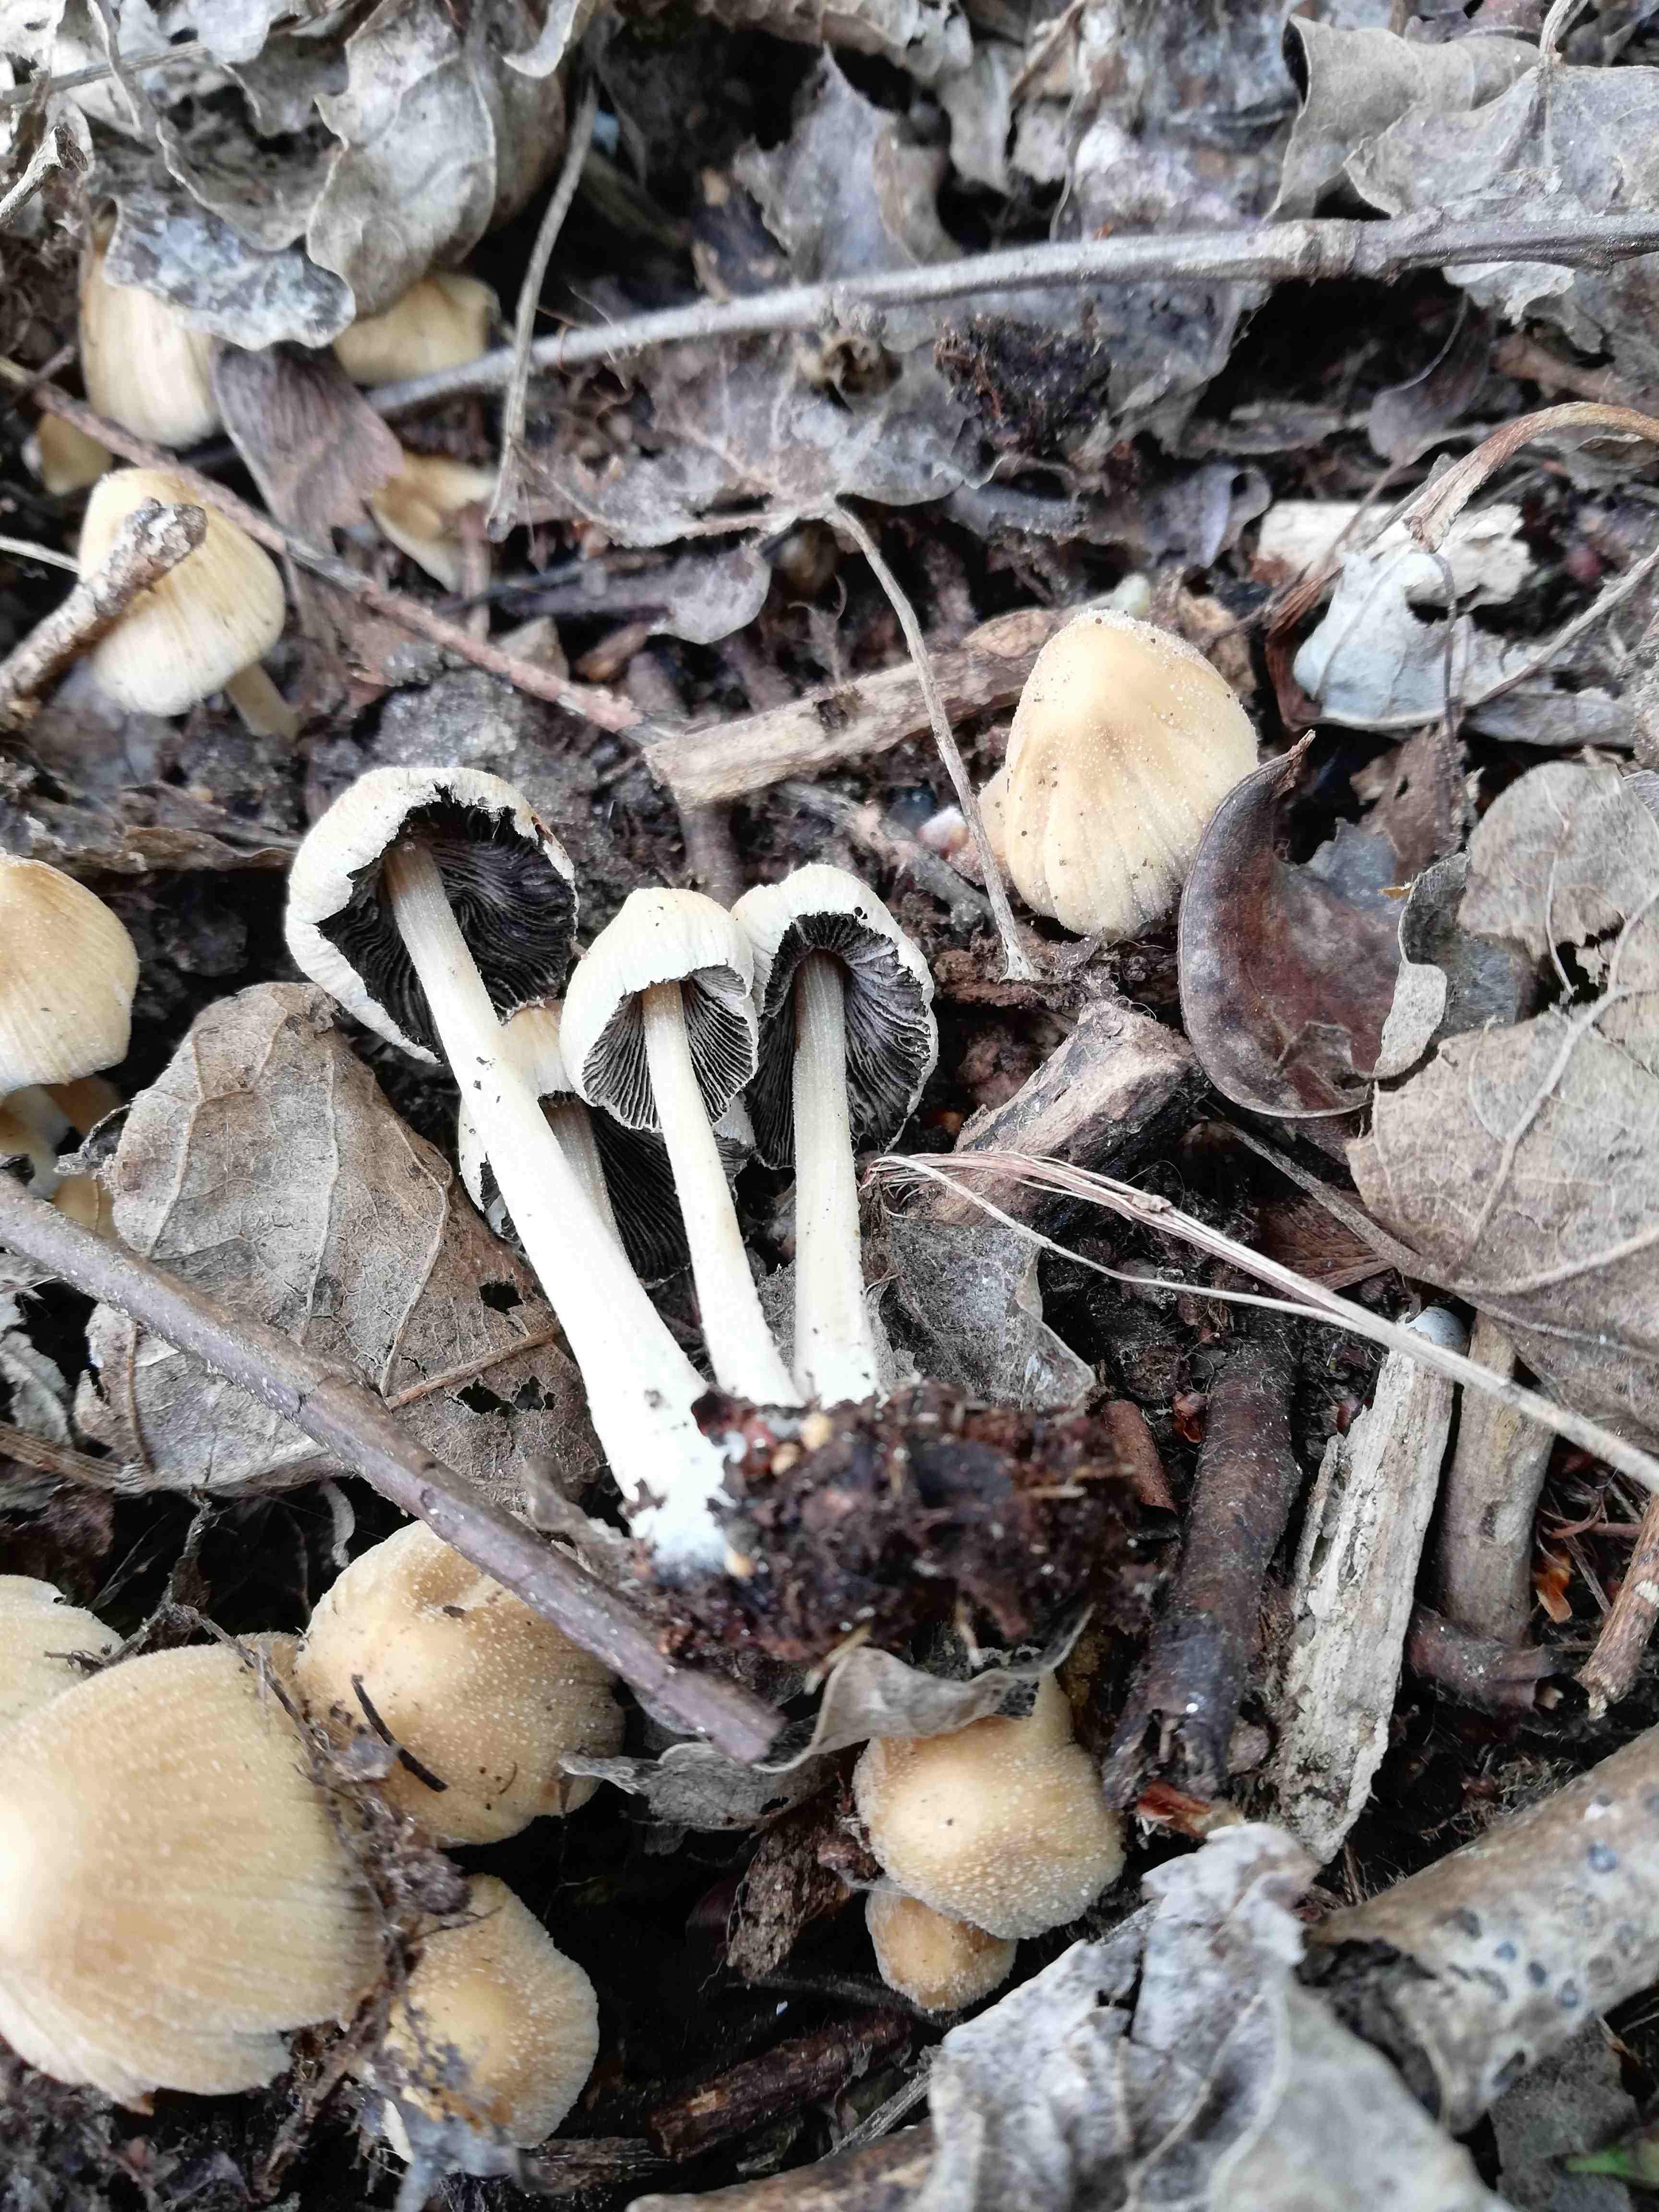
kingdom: Fungi
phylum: Basidiomycota
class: Agaricomycetes
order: Agaricales
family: Psathyrellaceae
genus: Coprinellus
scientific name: Coprinellus micaceus
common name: glimmer-blækhat
